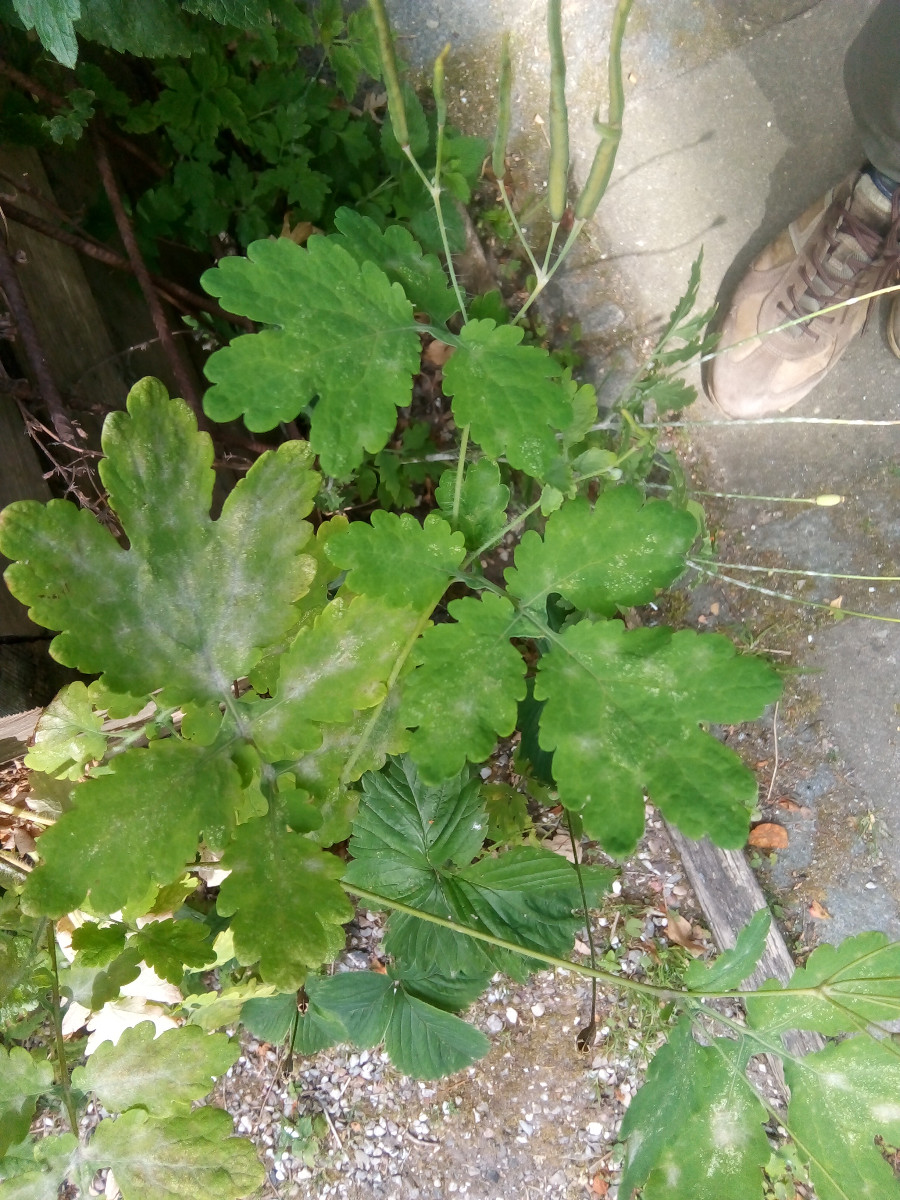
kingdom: Fungi
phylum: Ascomycota
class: Leotiomycetes
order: Helotiales
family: Erysiphaceae
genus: Erysiphe
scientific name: Erysiphe macleayae
